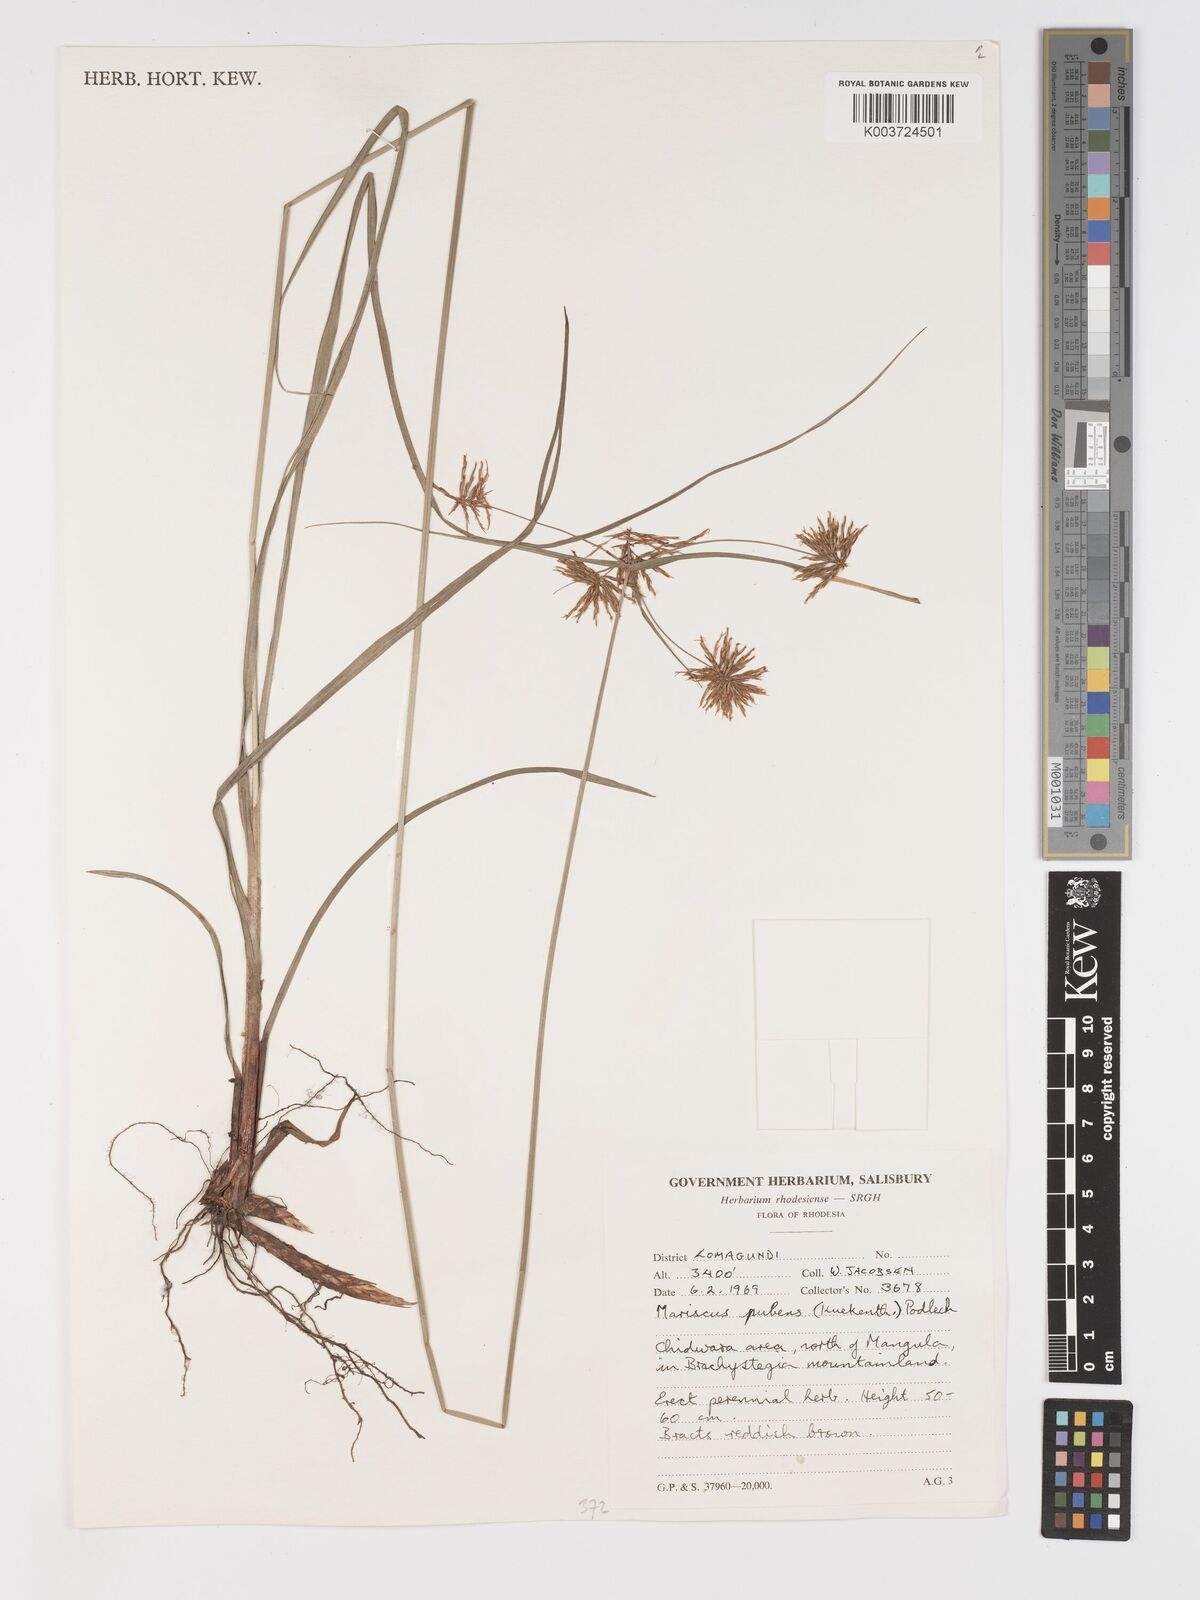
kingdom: Plantae
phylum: Tracheophyta
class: Liliopsida
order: Poales
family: Cyperaceae
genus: Cyperus
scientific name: Cyperus pubens
